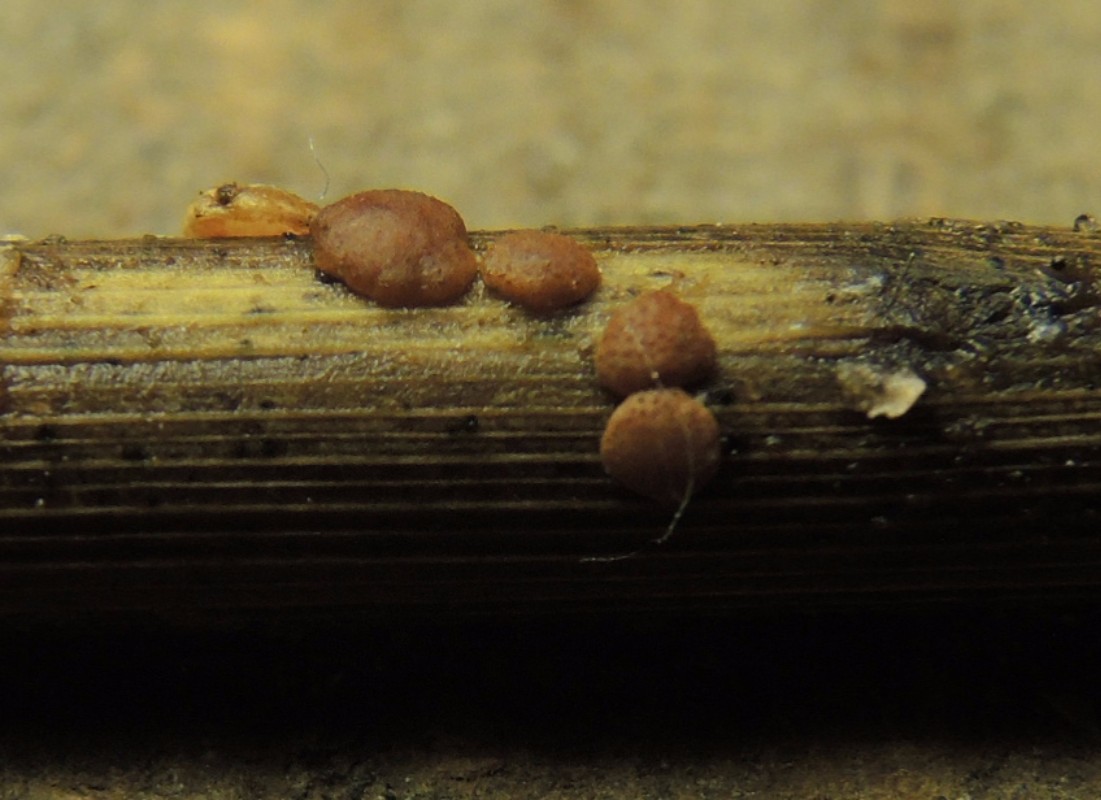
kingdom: Fungi
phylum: Ascomycota
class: Sordariomycetes
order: Hypocreales
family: Hypocreaceae
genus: Trichoderma
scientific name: Trichoderma
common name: kødkerne
